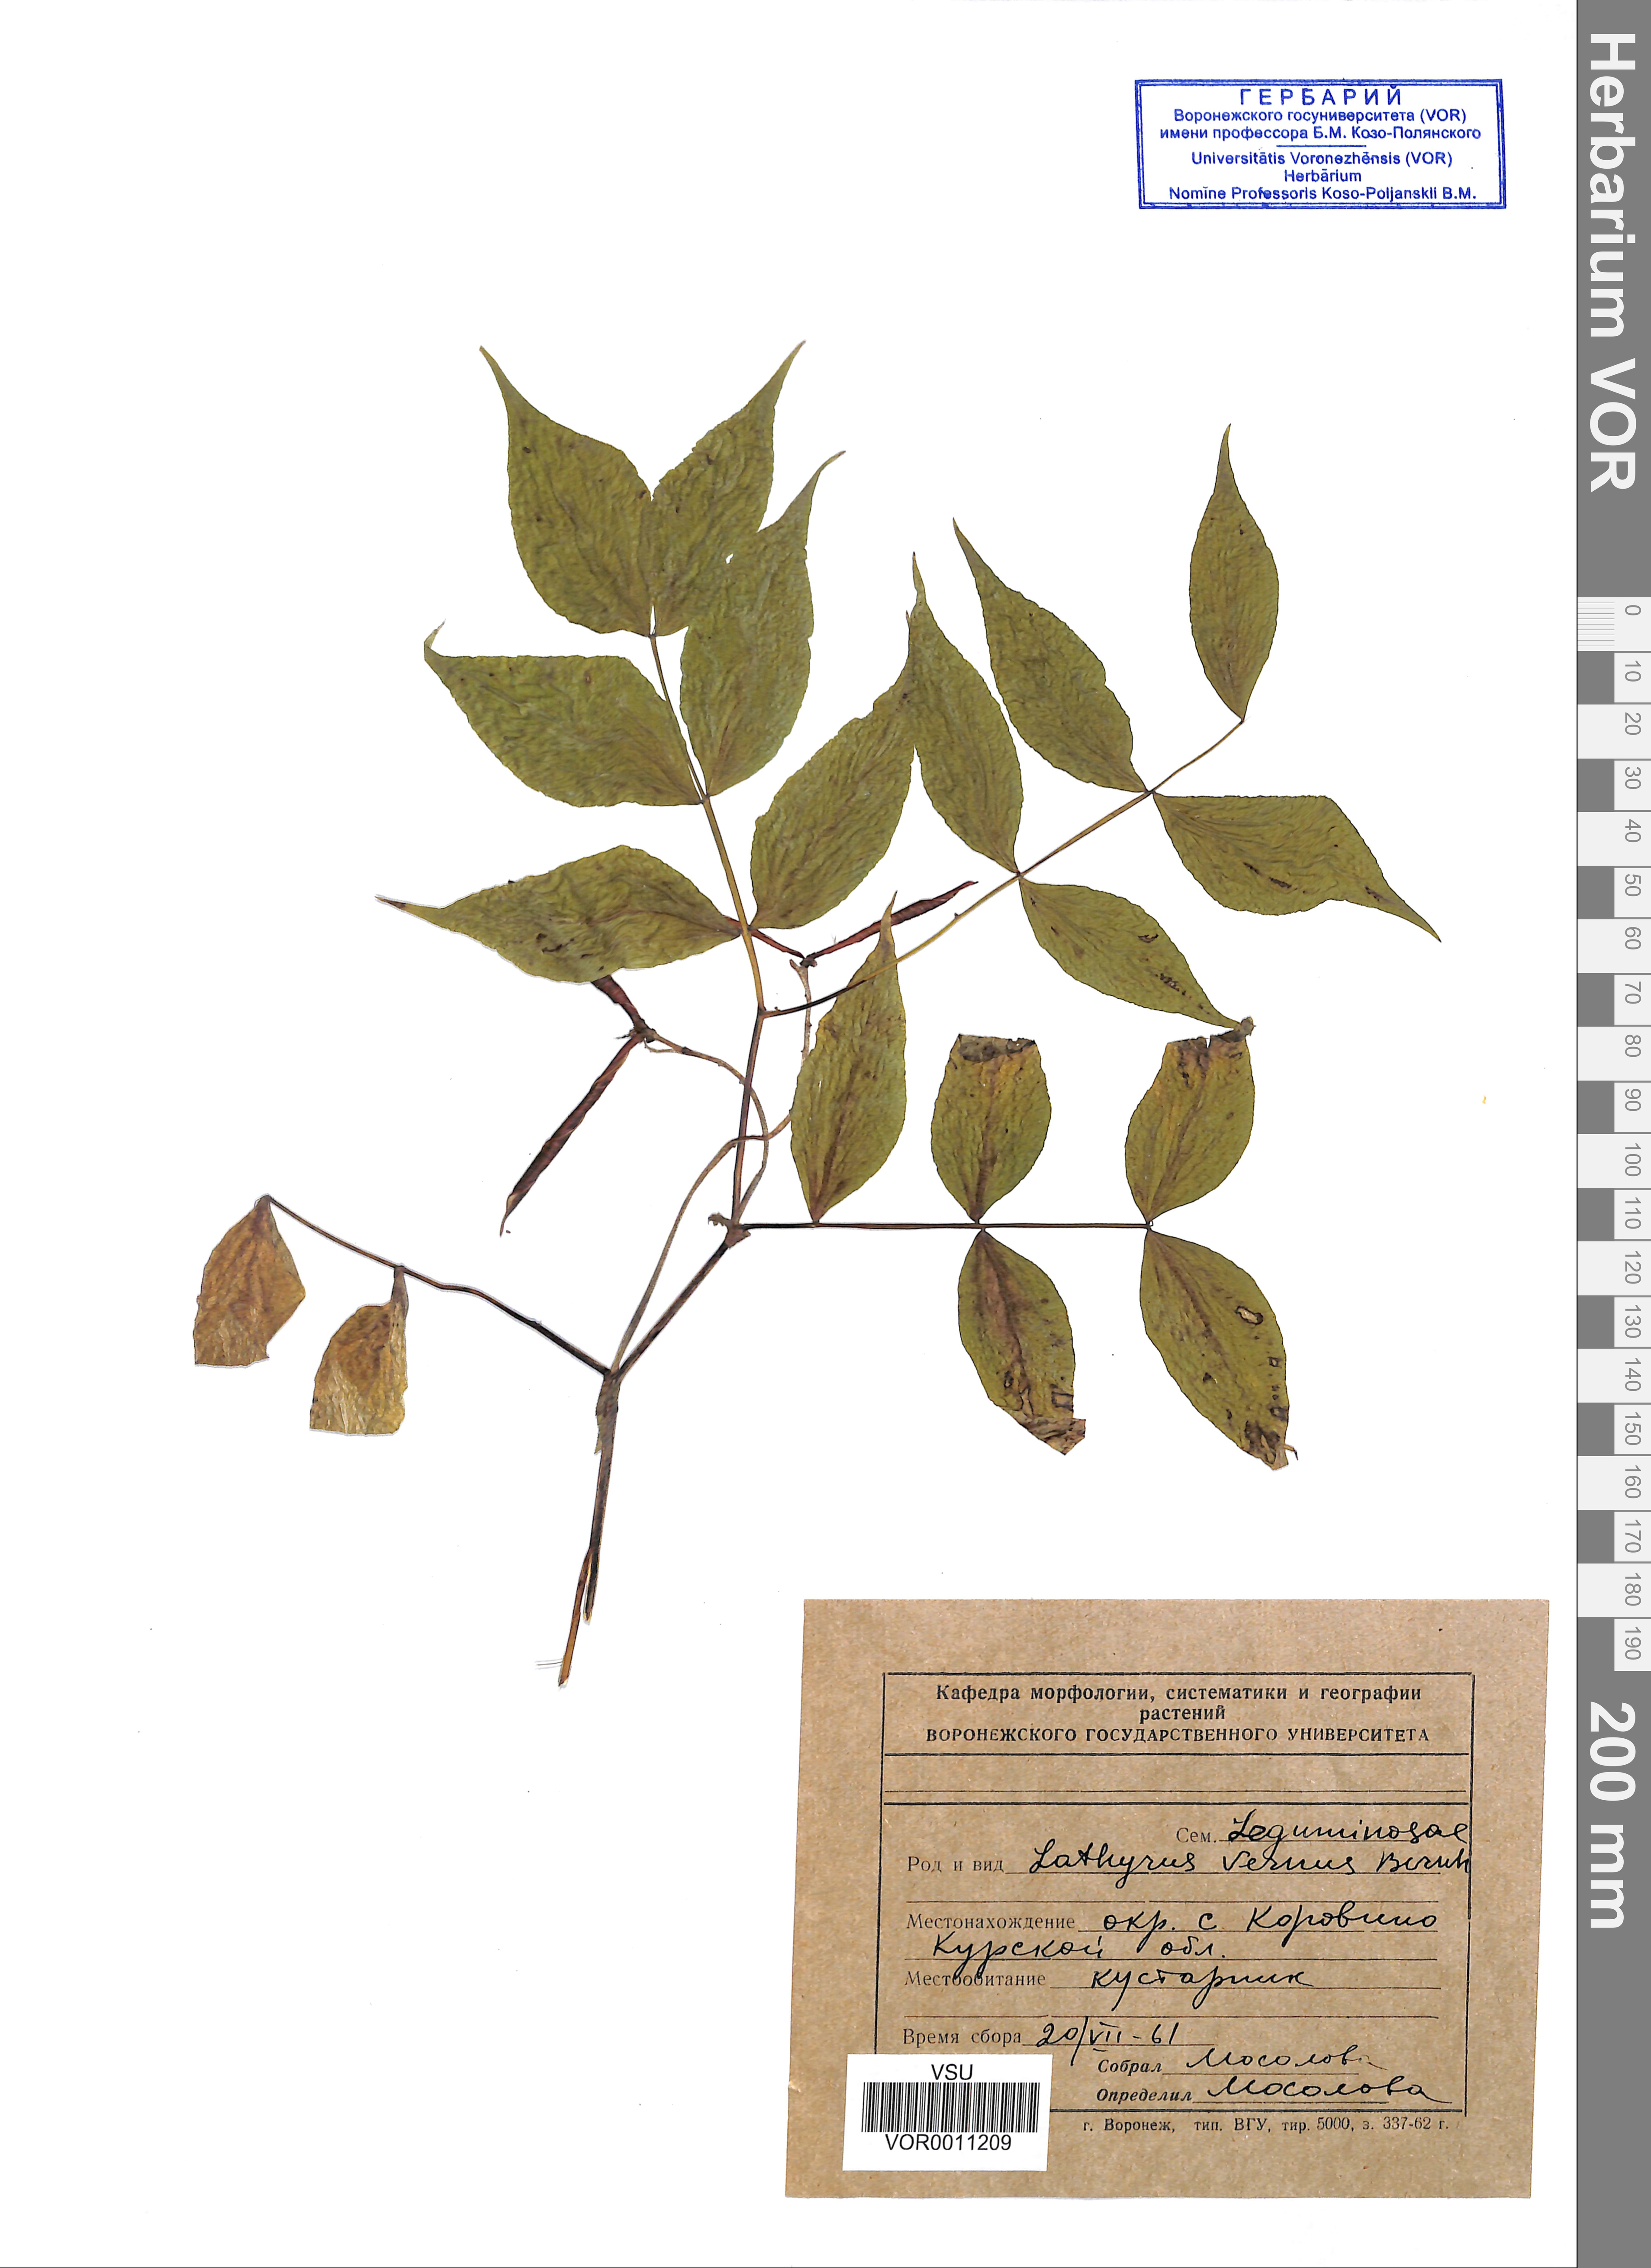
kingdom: Plantae
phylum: Tracheophyta
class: Magnoliopsida
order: Fabales
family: Fabaceae
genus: Lathyrus
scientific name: Lathyrus vernus
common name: Spring pea
